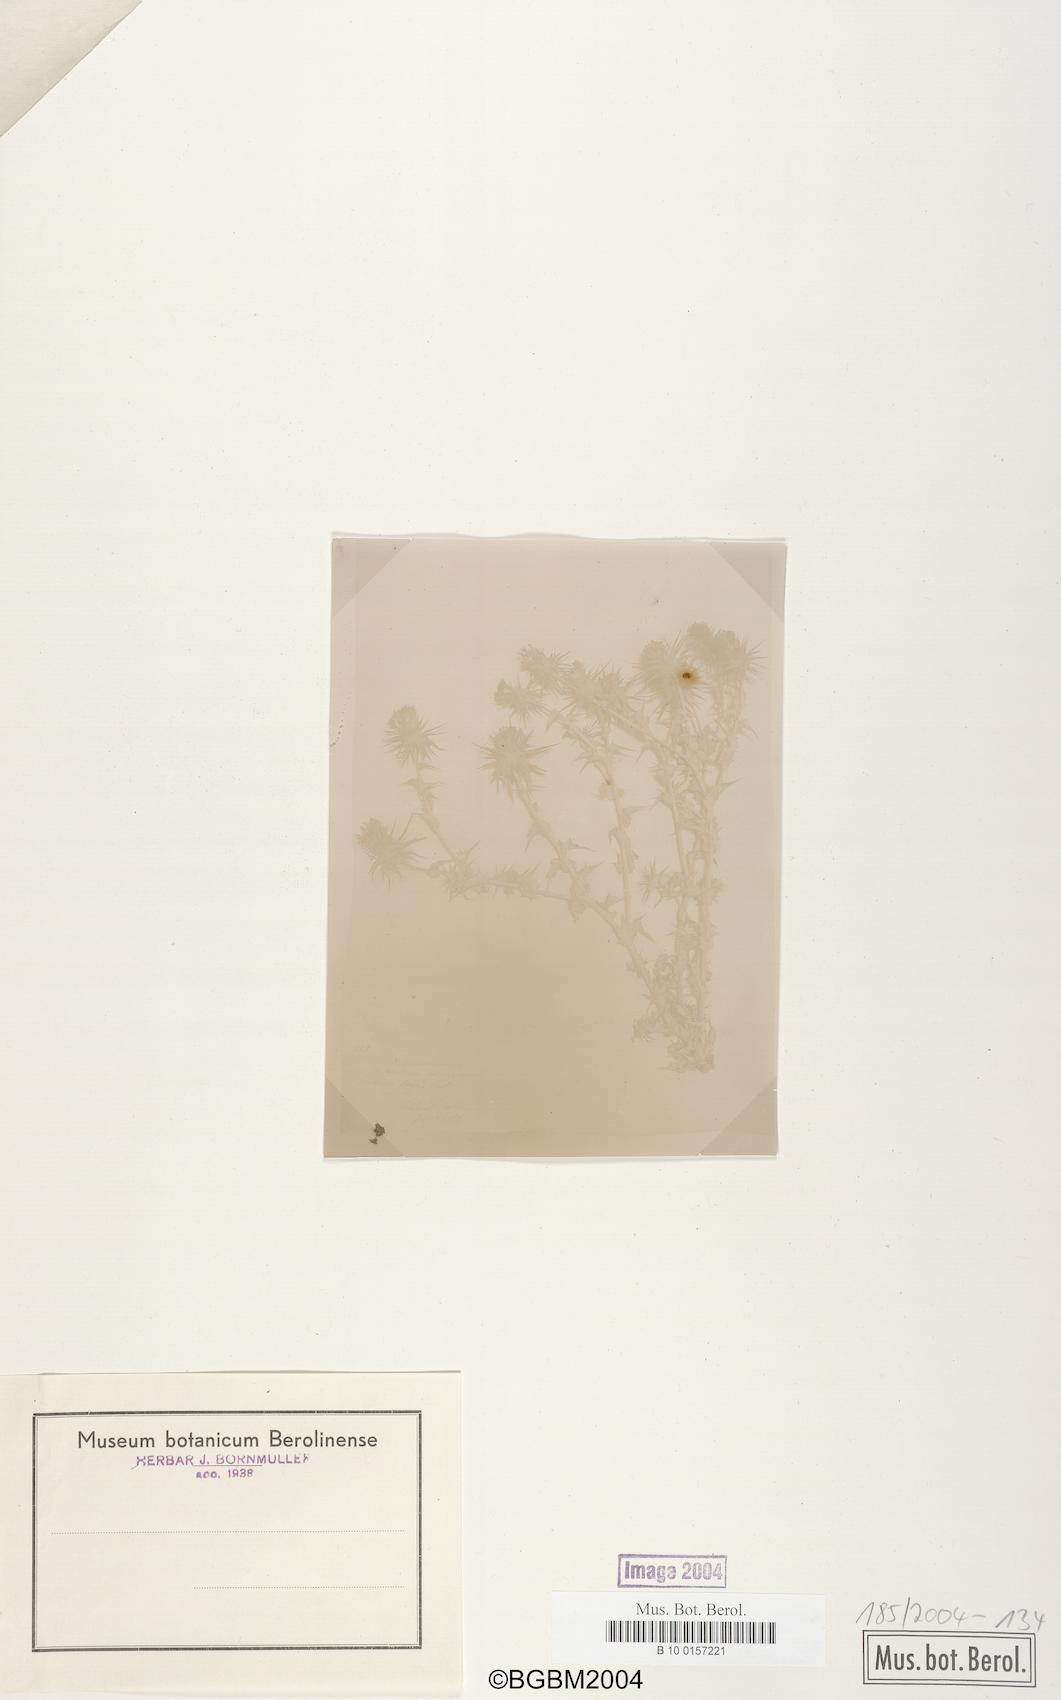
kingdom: Plantae
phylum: Tracheophyta
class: Magnoliopsida
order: Asterales
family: Asteraceae
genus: Cousinia
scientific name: Cousinia libanotica
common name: Lebanon cousinia
